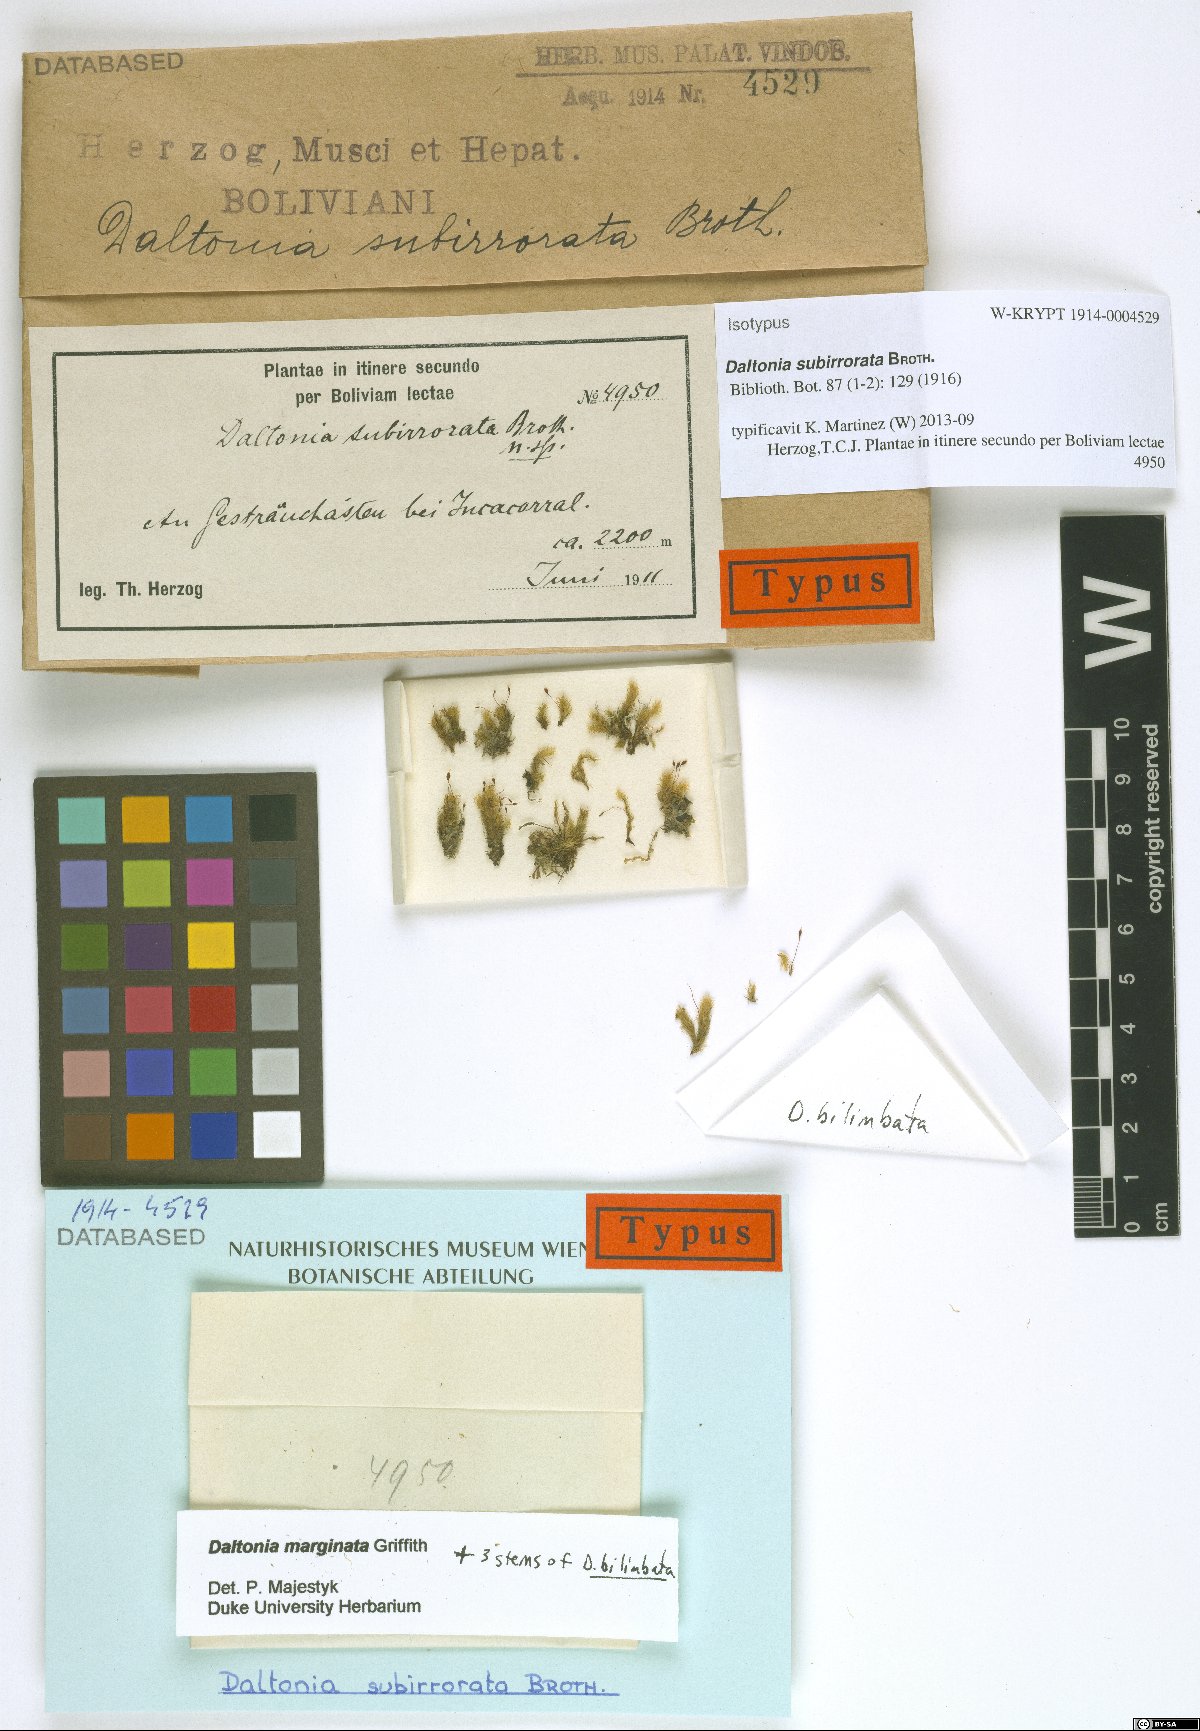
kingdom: Plantae
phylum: Bryophyta
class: Bryopsida
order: Hookeriales
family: Daltoniaceae
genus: Daltonia
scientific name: Daltonia bilimbata
